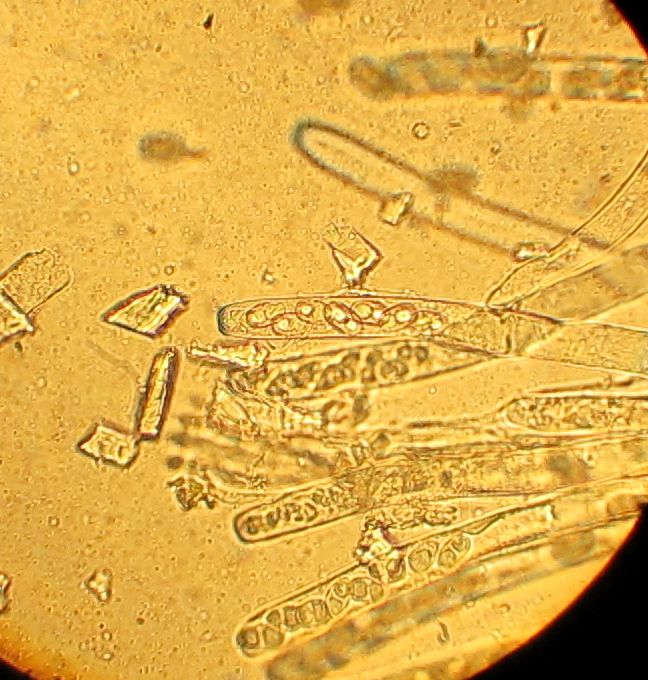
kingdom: Fungi
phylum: Ascomycota
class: Pezizomycetes
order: Pezizales
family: Pezizaceae
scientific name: Pezizaceae
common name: bægersvampfamilien
